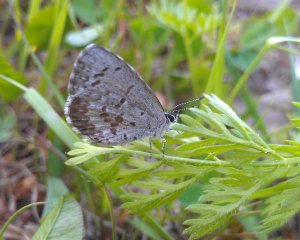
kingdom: Animalia
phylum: Arthropoda
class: Insecta
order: Lepidoptera
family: Lycaenidae
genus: Celastrina
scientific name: Celastrina lucia
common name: Northern Spring Azure
